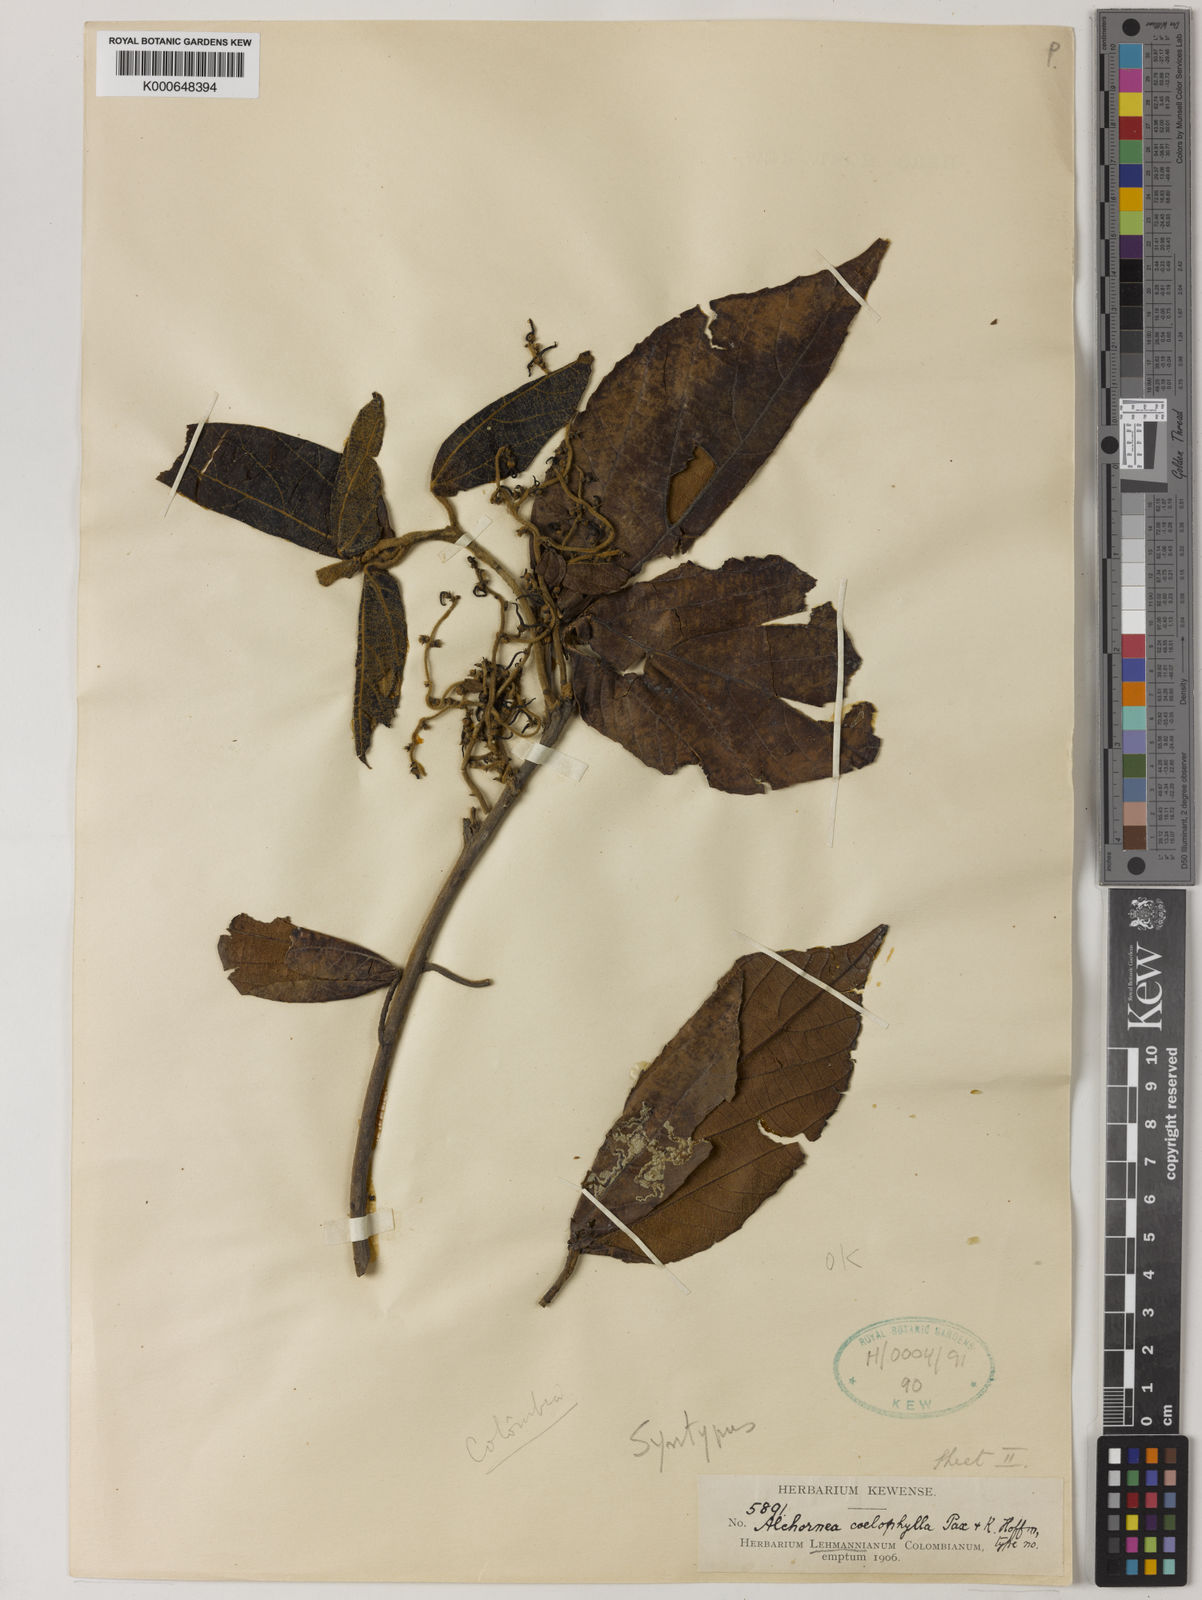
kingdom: Plantae
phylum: Tracheophyta
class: Magnoliopsida
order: Malpighiales
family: Euphorbiaceae
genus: Alchornea
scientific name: Alchornea coelophylla
